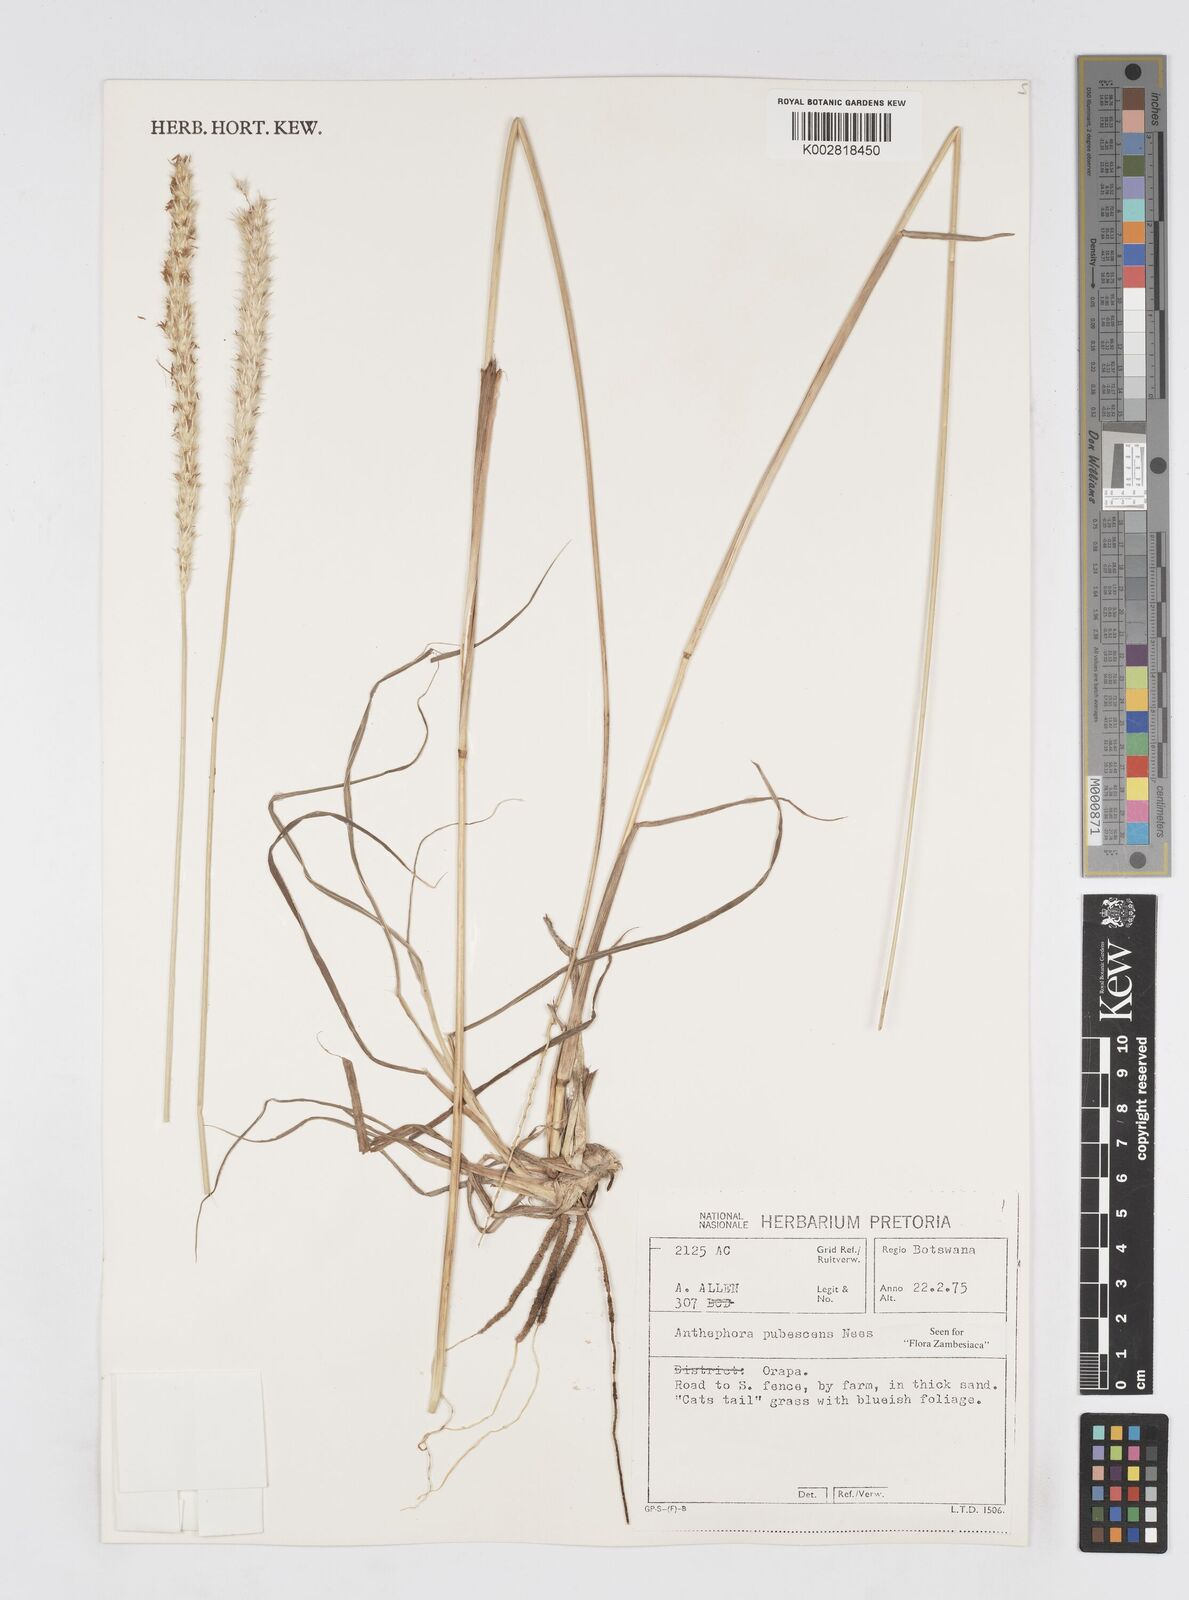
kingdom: Plantae
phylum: Tracheophyta
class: Liliopsida
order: Poales
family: Poaceae
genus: Anthephora
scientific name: Anthephora pubescens
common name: Wool grass
